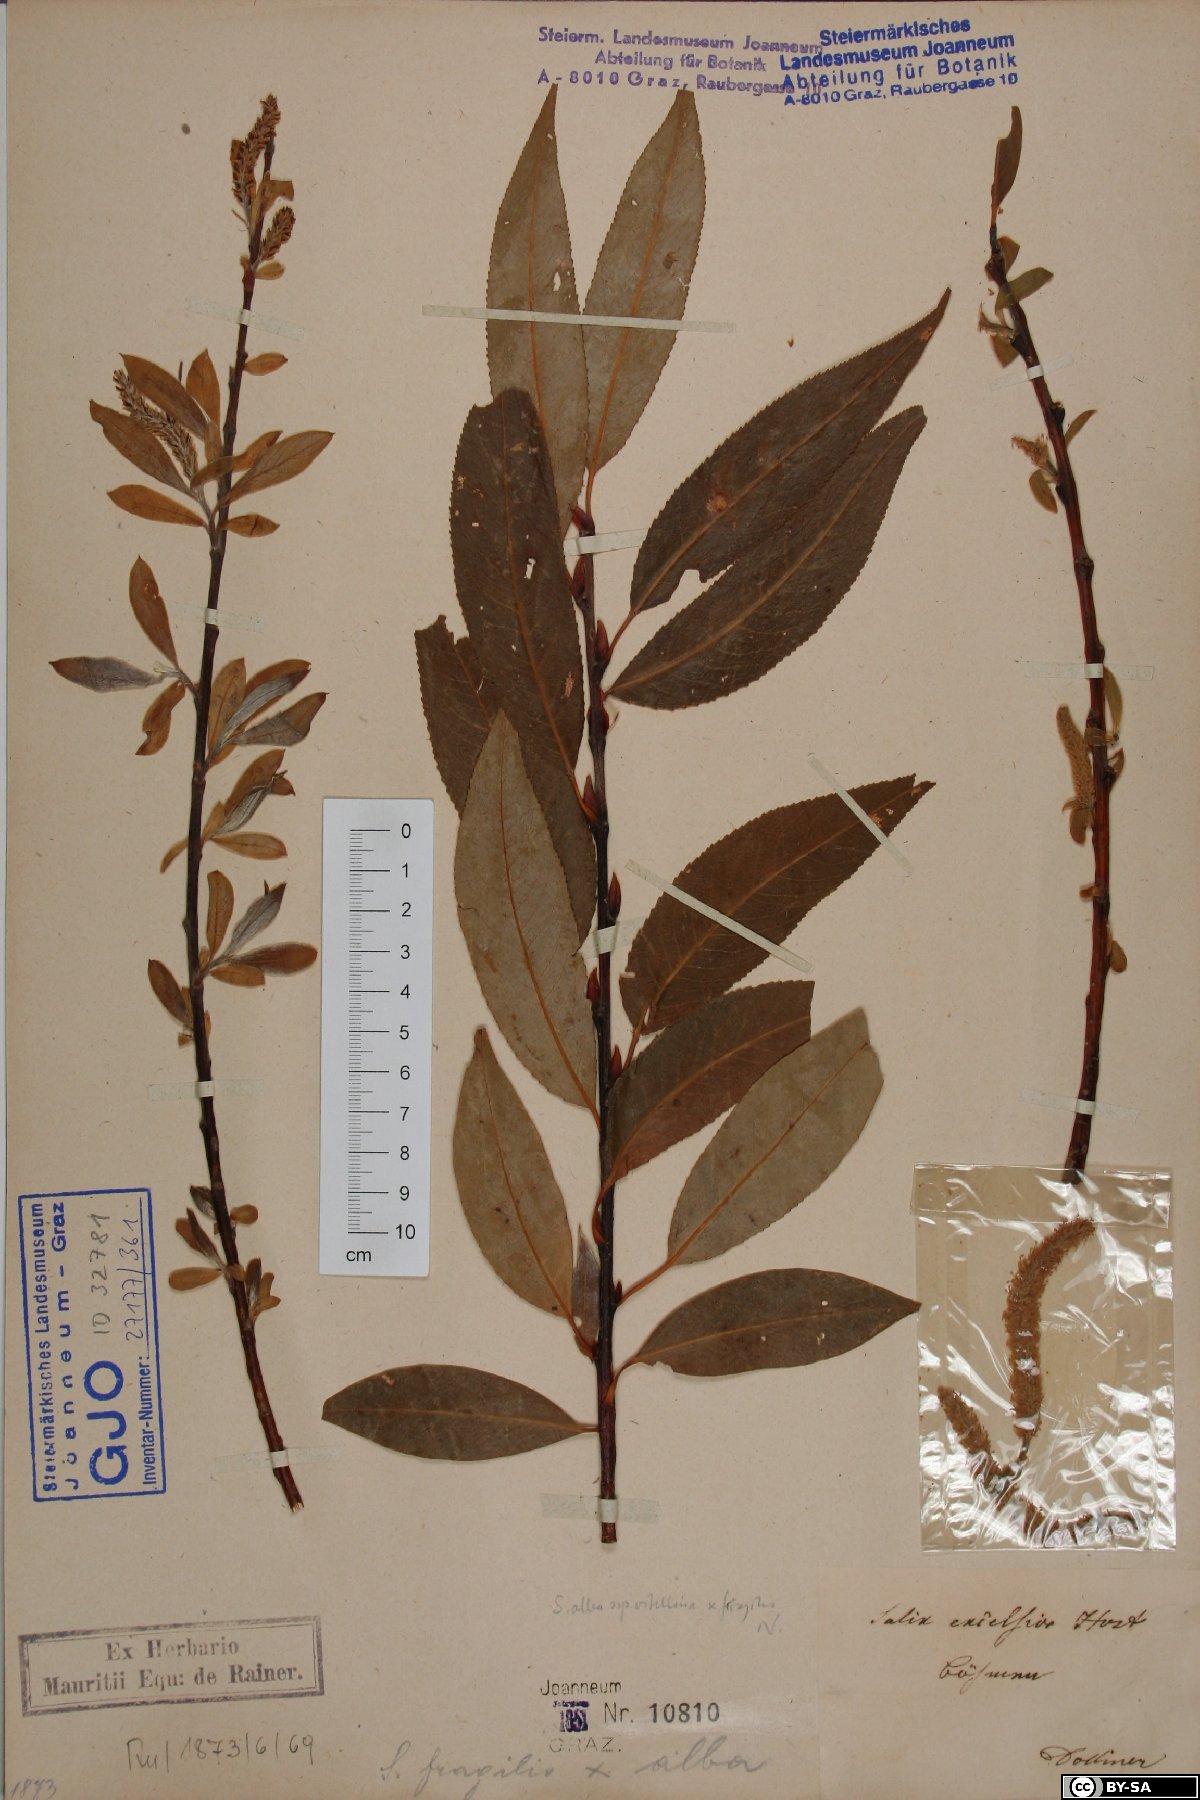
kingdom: Plantae
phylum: Tracheophyta
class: Magnoliopsida
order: Malpighiales
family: Salicaceae
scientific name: Salicaceae
